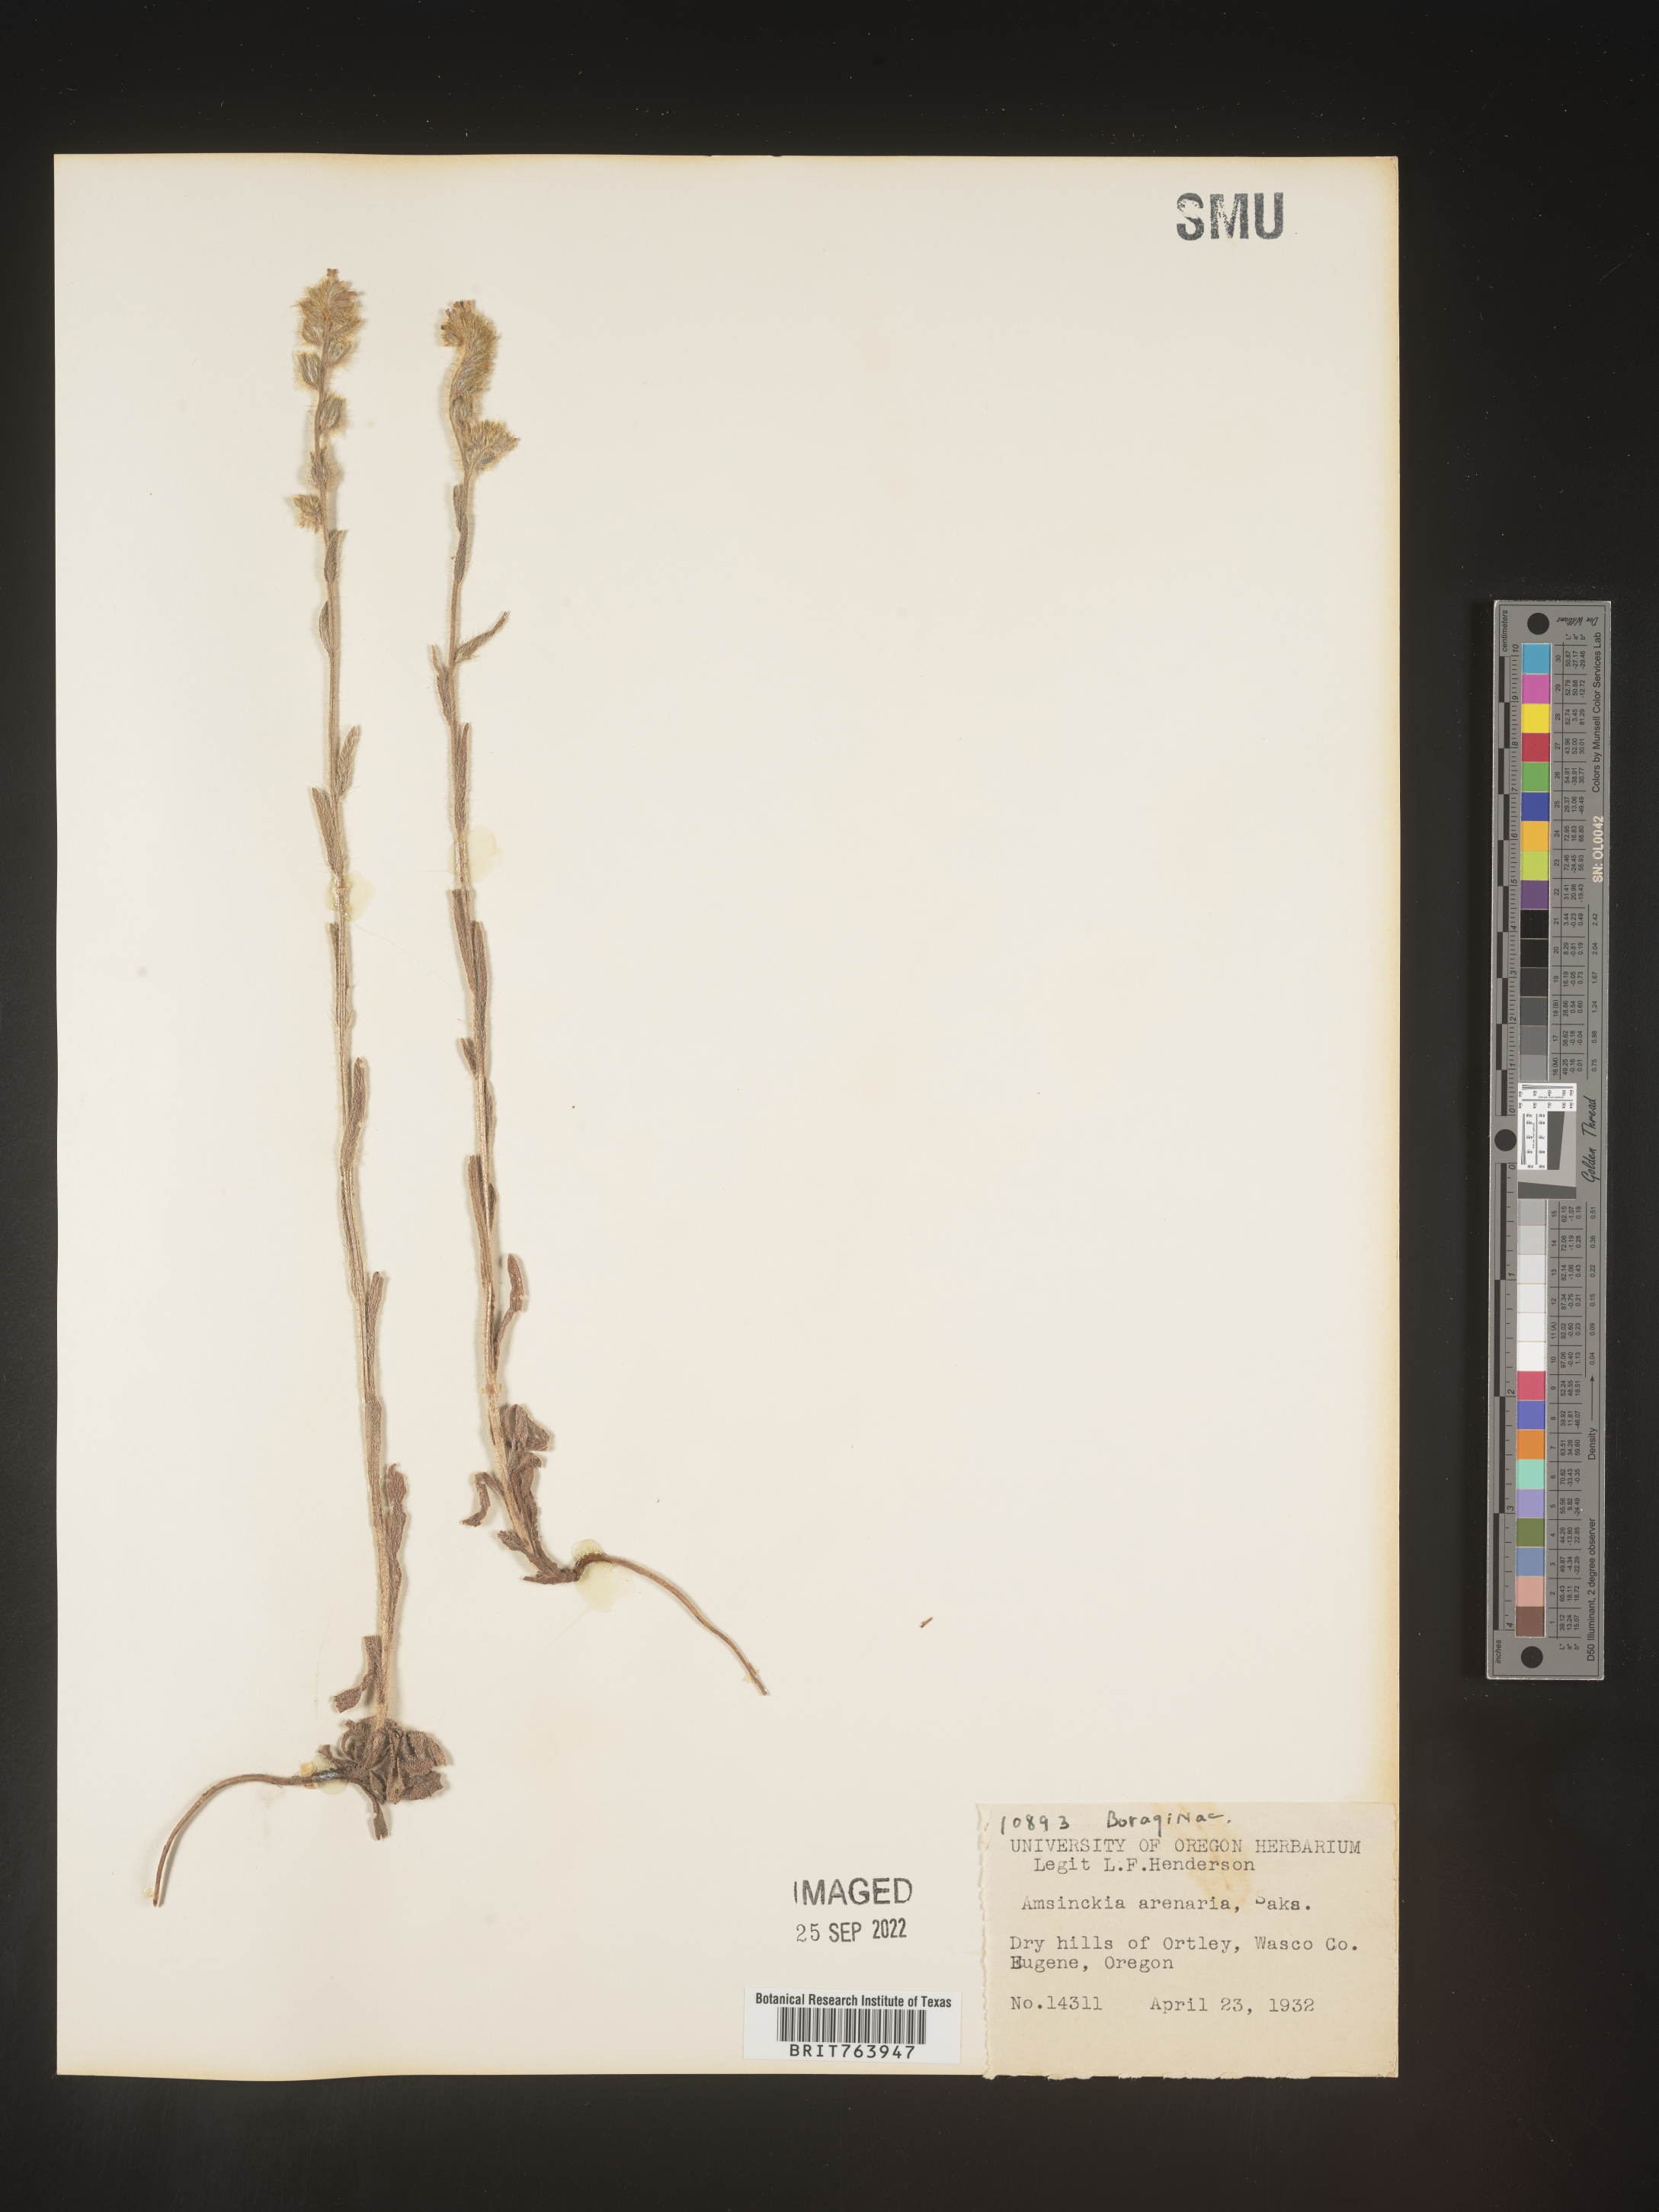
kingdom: Plantae
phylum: Tracheophyta
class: Magnoliopsida
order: Boraginales
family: Boraginaceae
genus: Amsinckia
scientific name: Amsinckia
